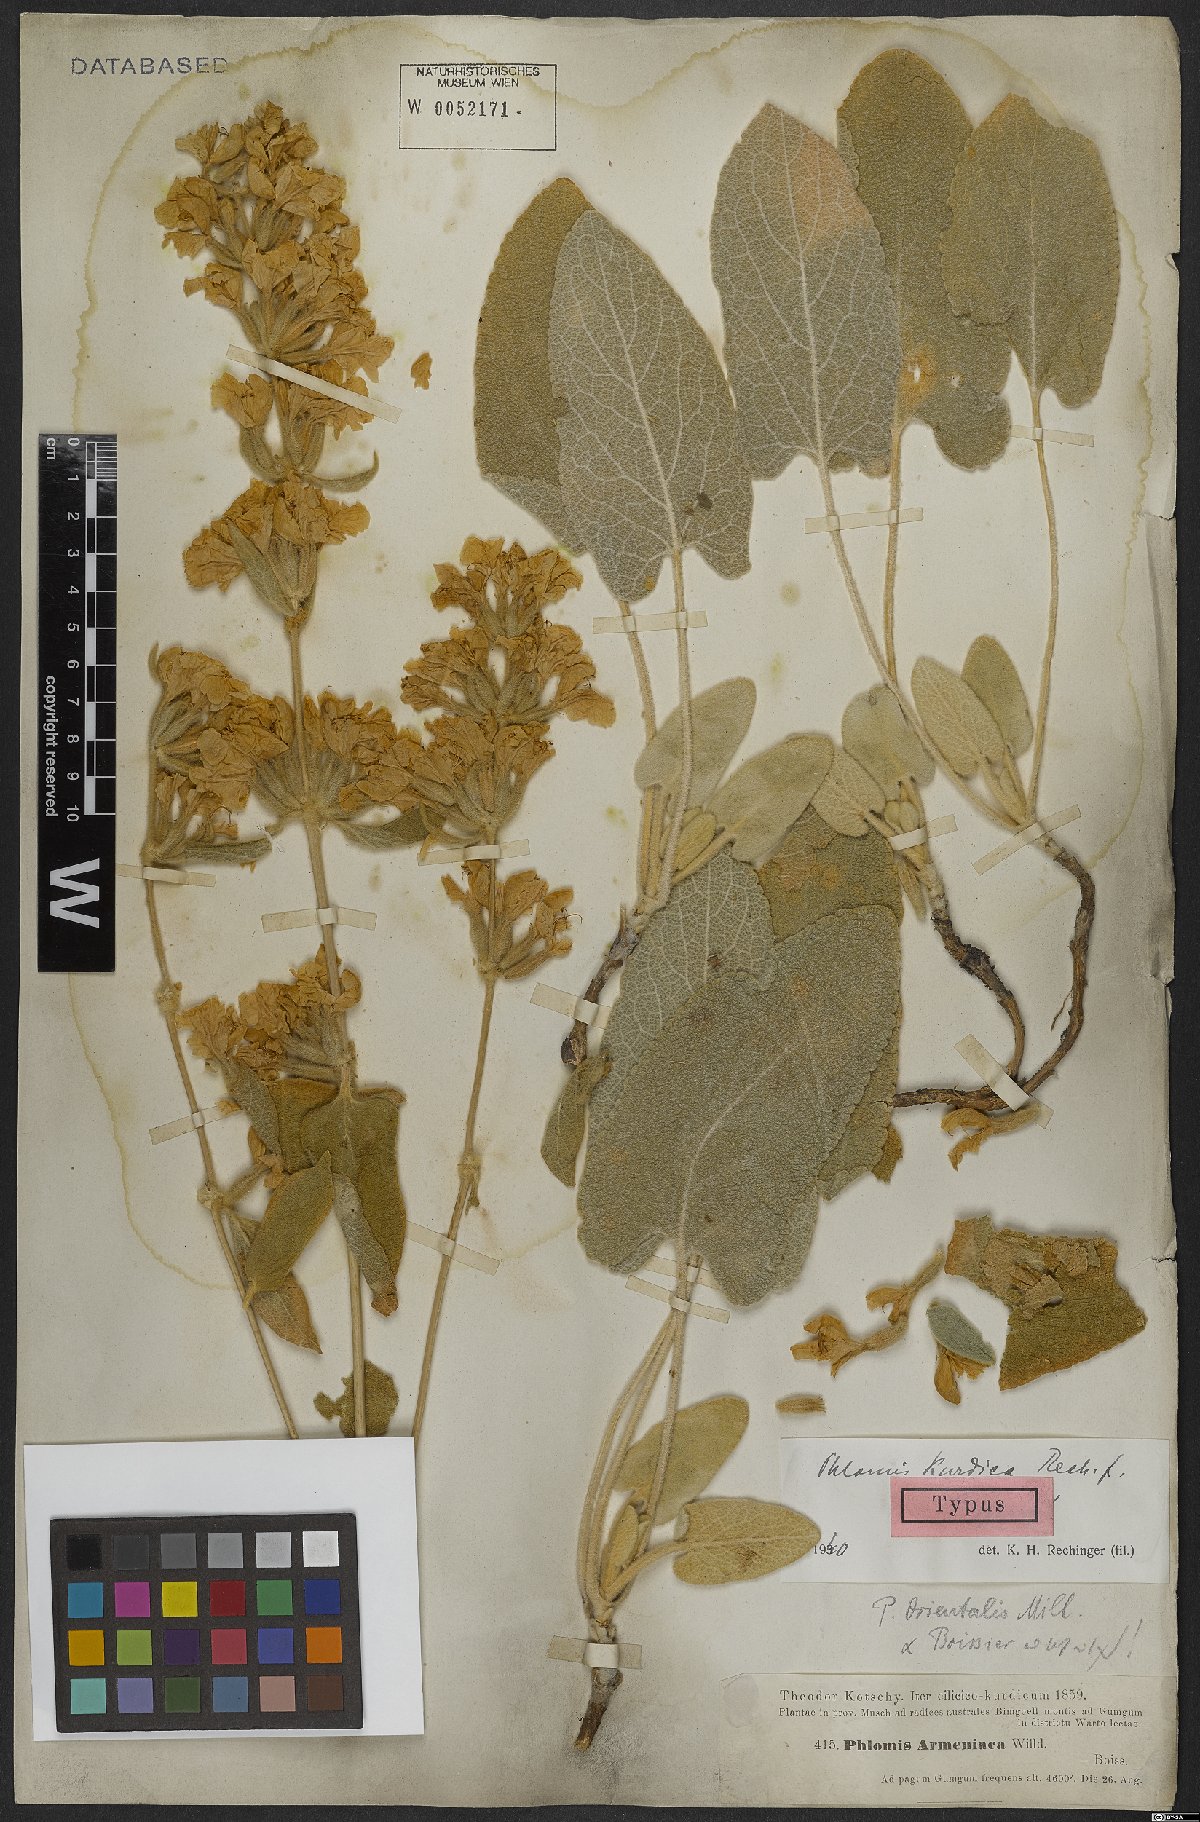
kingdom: Plantae
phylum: Tracheophyta
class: Magnoliopsida
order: Lamiales
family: Lamiaceae
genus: Phlomis
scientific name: Phlomis kurdica
